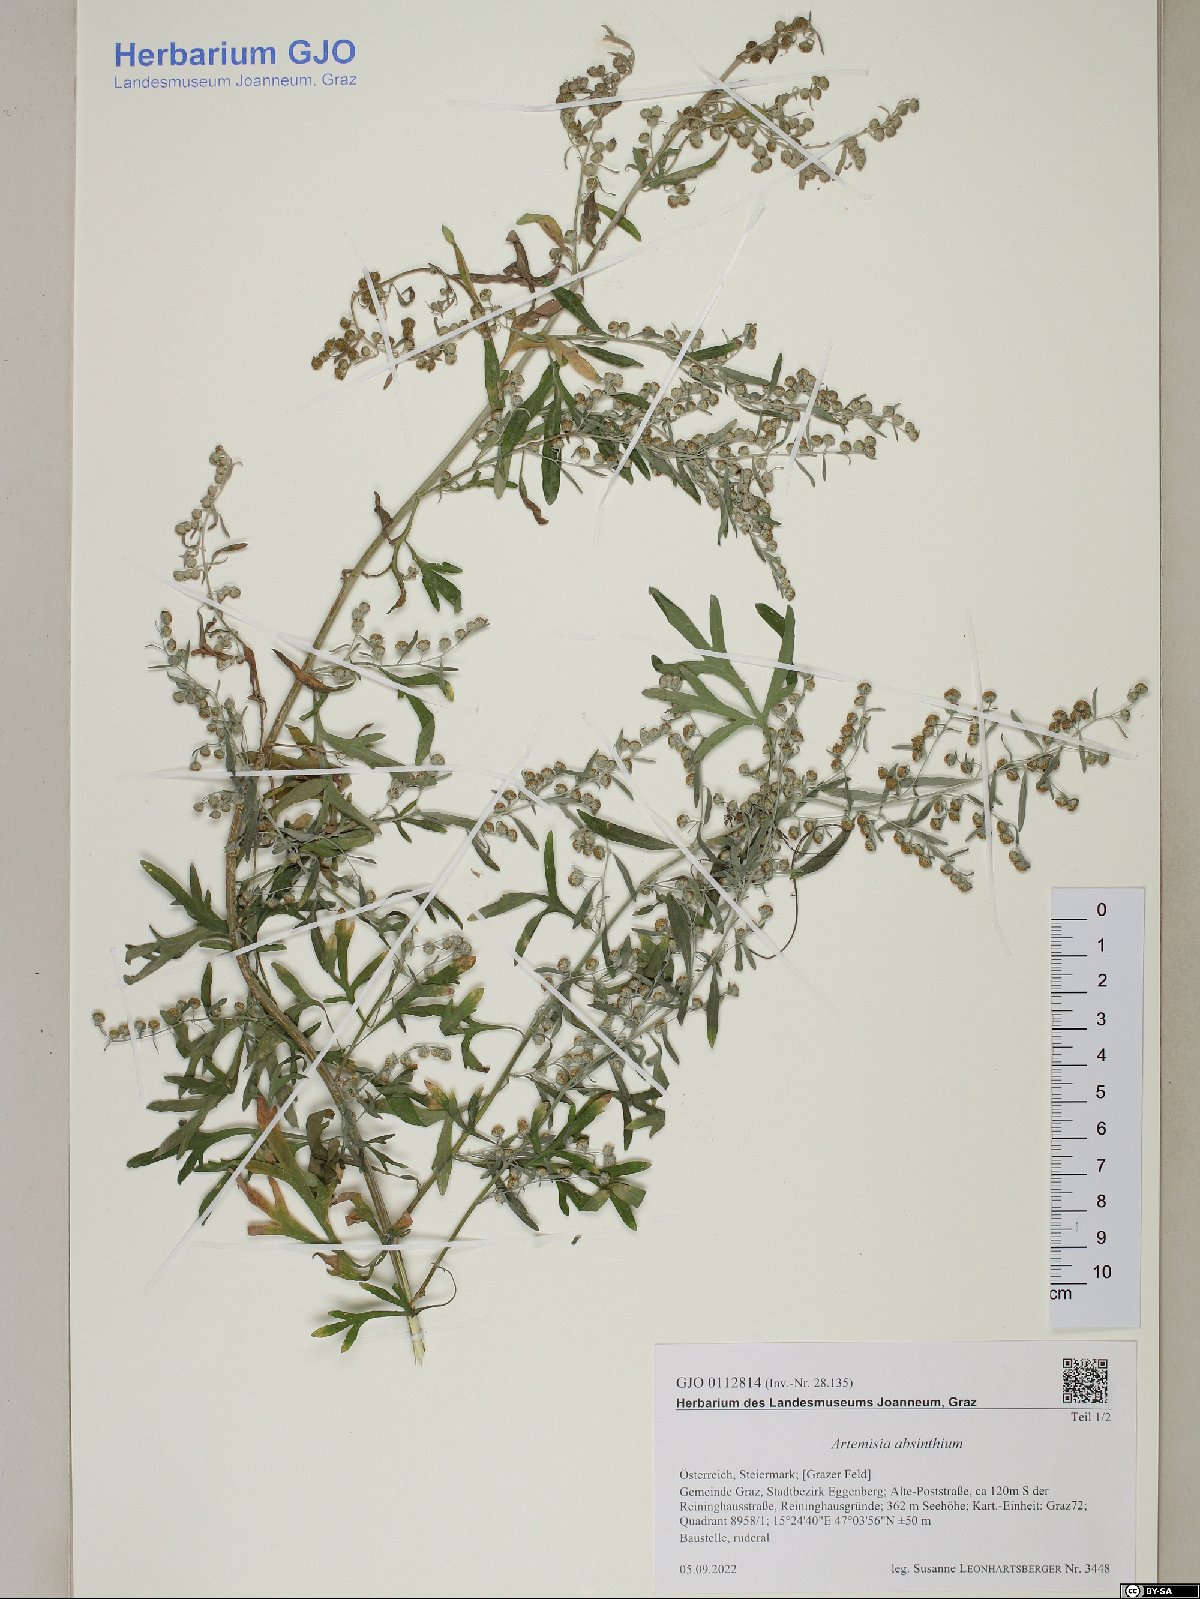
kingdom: Plantae
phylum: Tracheophyta
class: Magnoliopsida
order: Asterales
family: Asteraceae
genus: Artemisia
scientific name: Artemisia absinthium
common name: Wormwood
